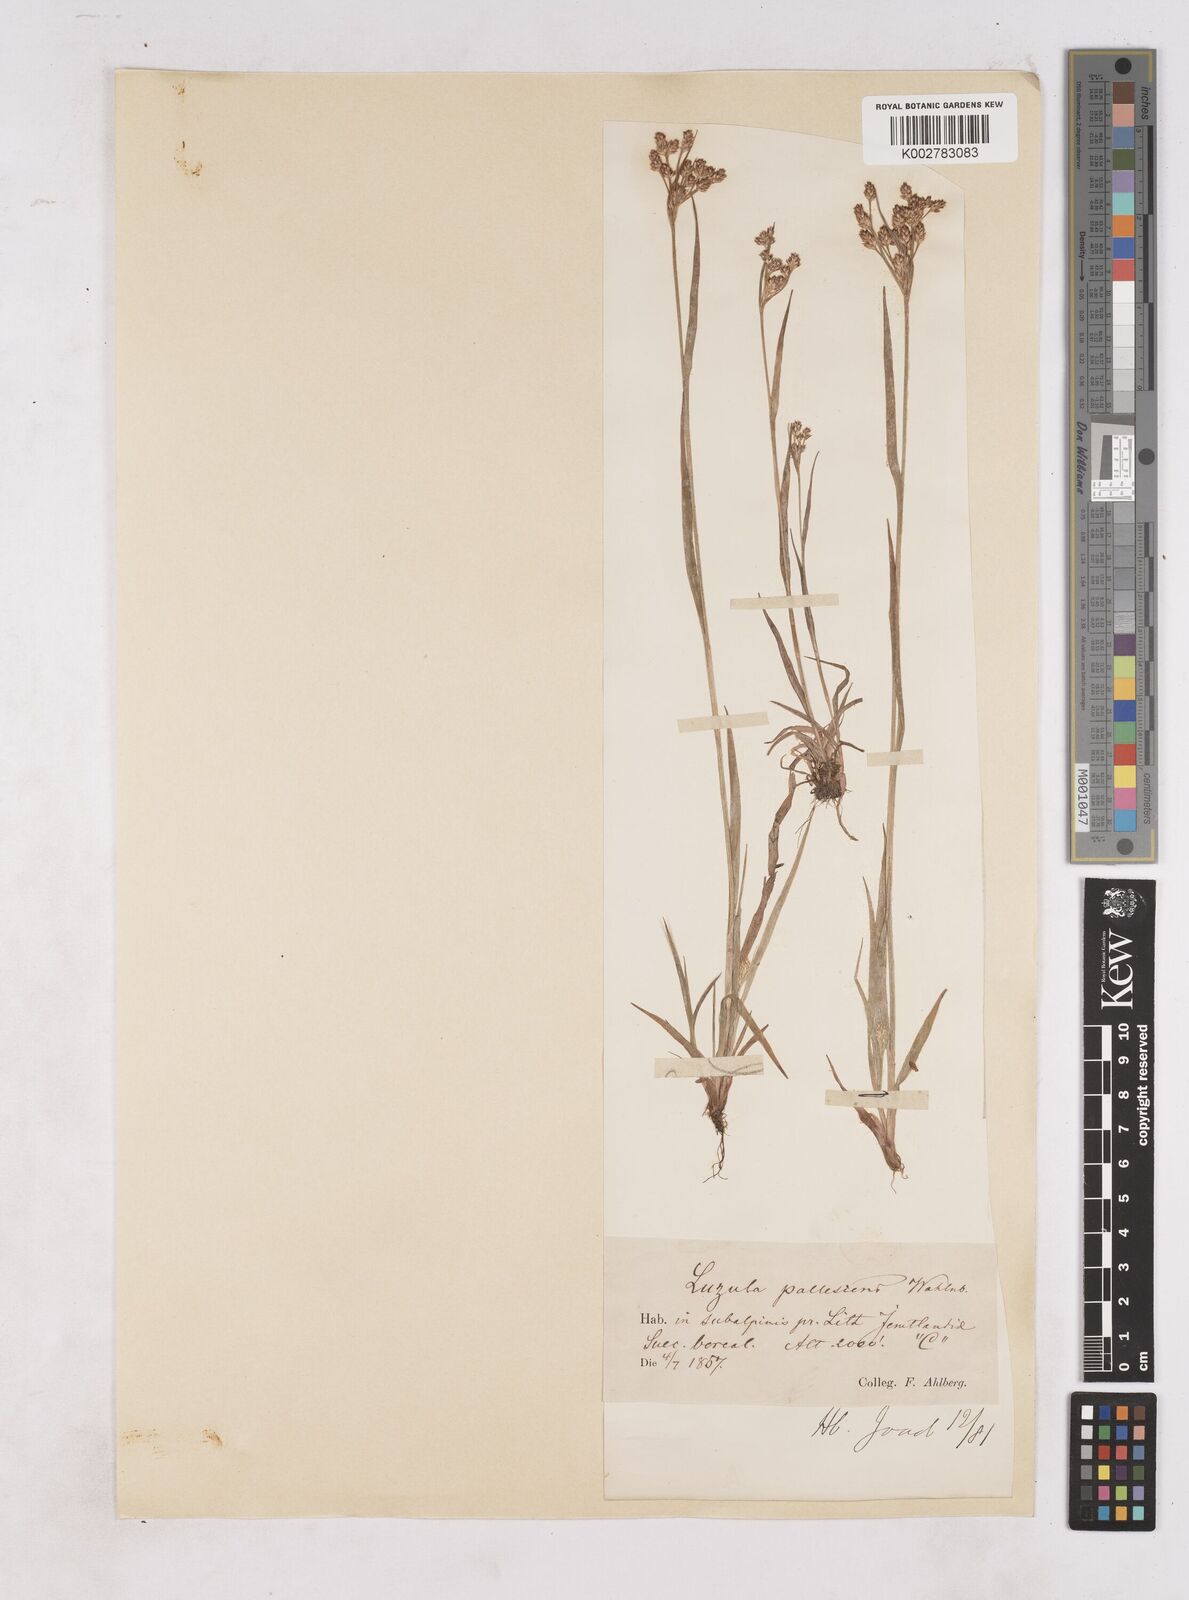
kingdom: Plantae
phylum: Tracheophyta
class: Liliopsida
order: Poales
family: Juncaceae
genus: Luzula
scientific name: Luzula pallescens
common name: Fen wood-rush
